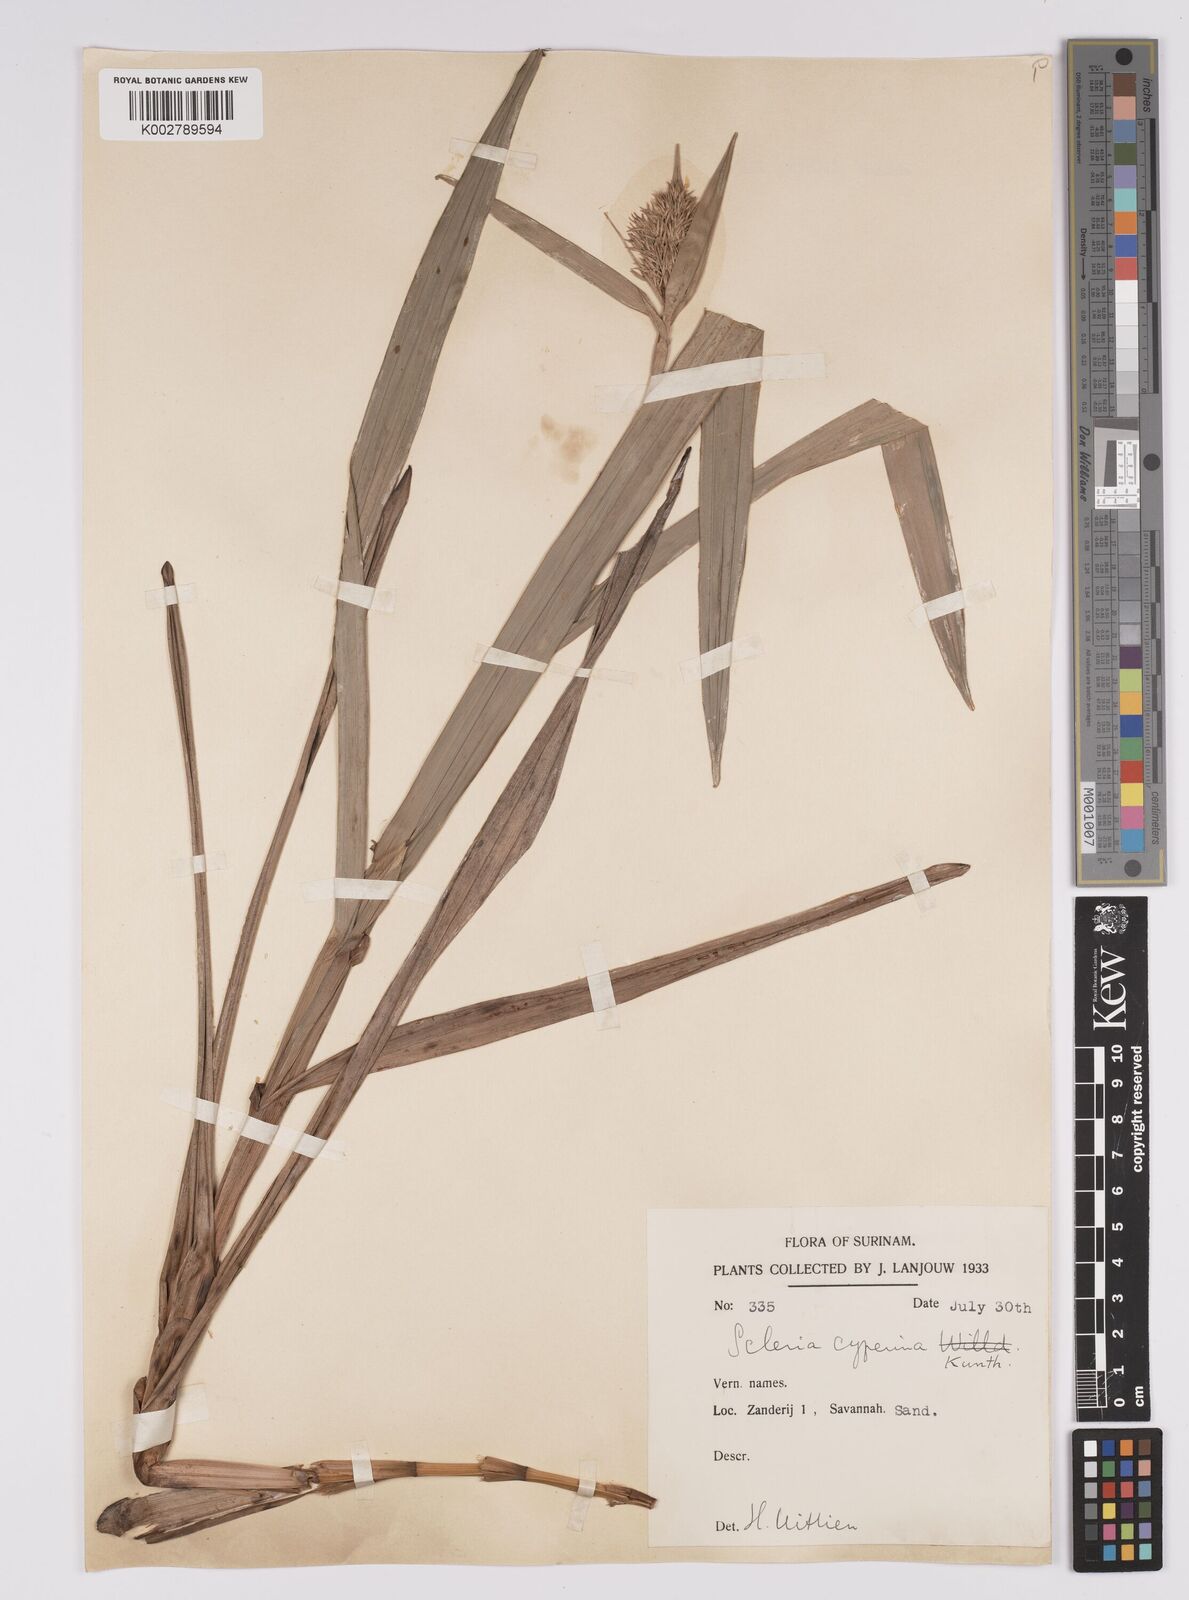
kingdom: Plantae
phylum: Tracheophyta
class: Liliopsida
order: Poales
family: Cyperaceae
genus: Scleria
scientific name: Scleria cyperina
